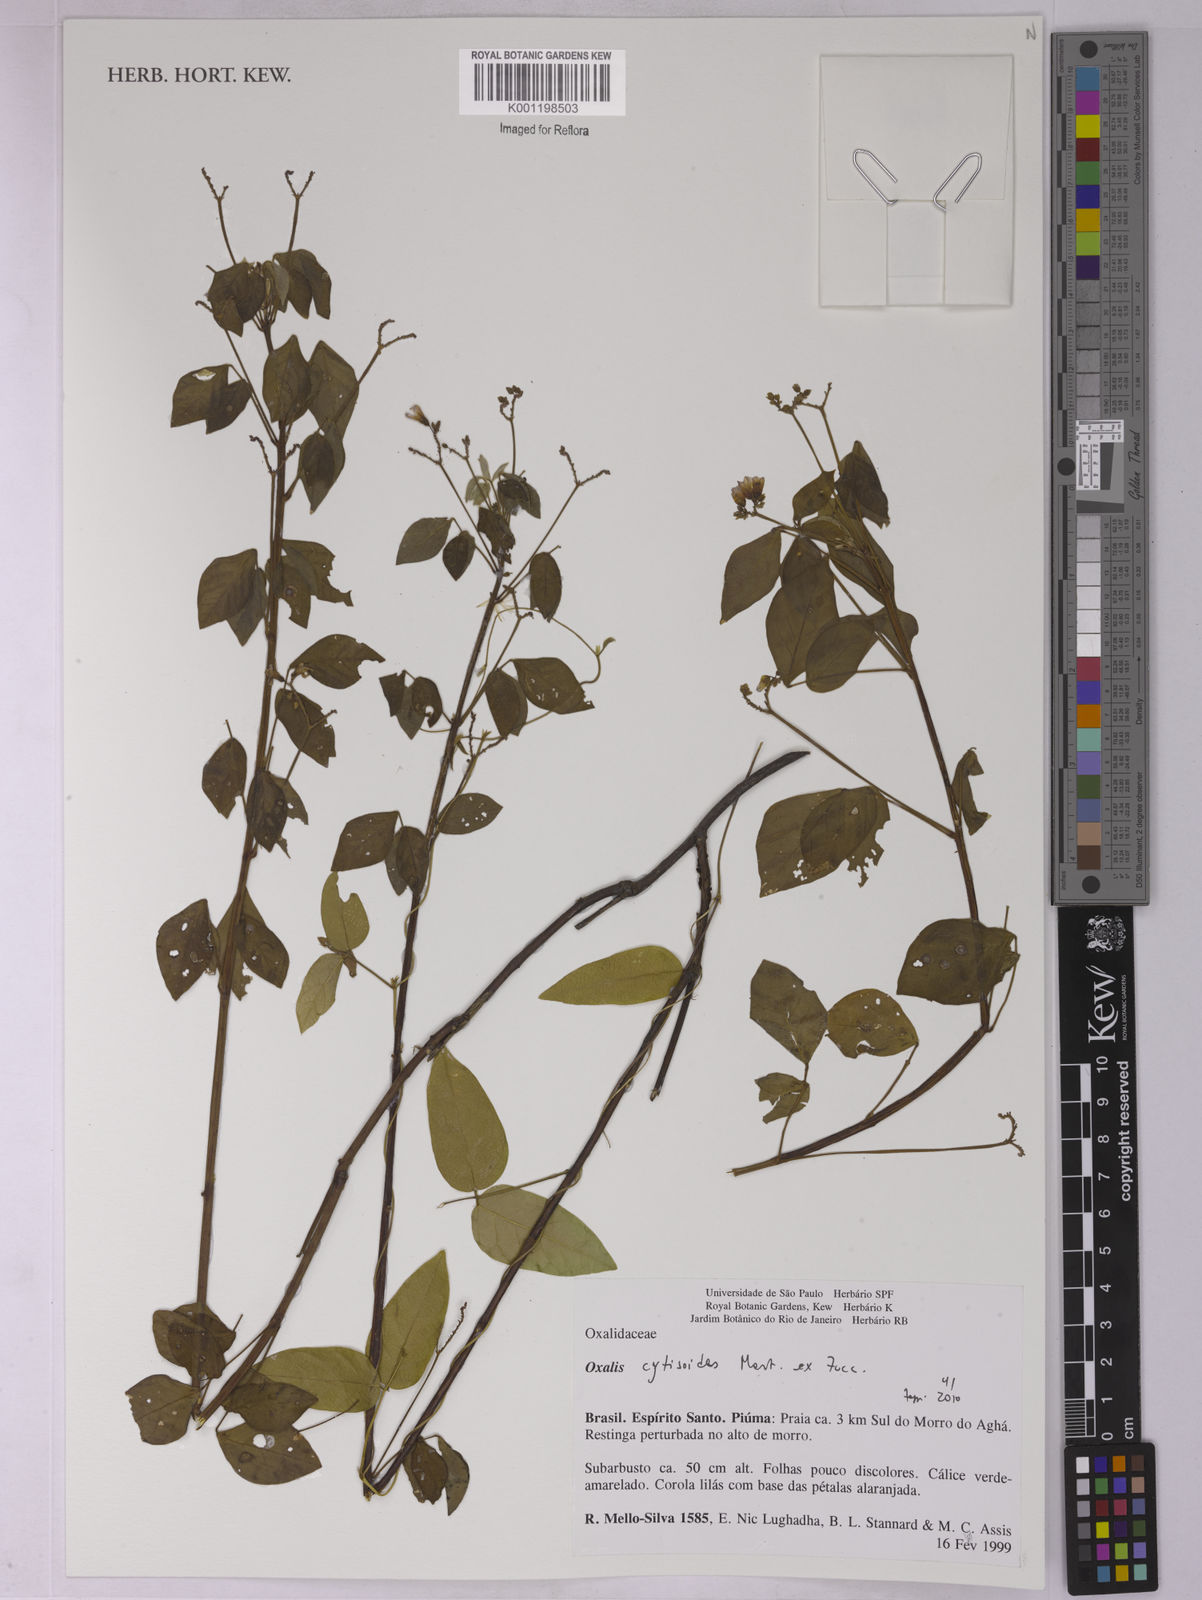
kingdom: Plantae
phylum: Tracheophyta
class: Magnoliopsida
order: Oxalidales
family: Oxalidaceae
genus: Oxalis
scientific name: Oxalis cytisoides
